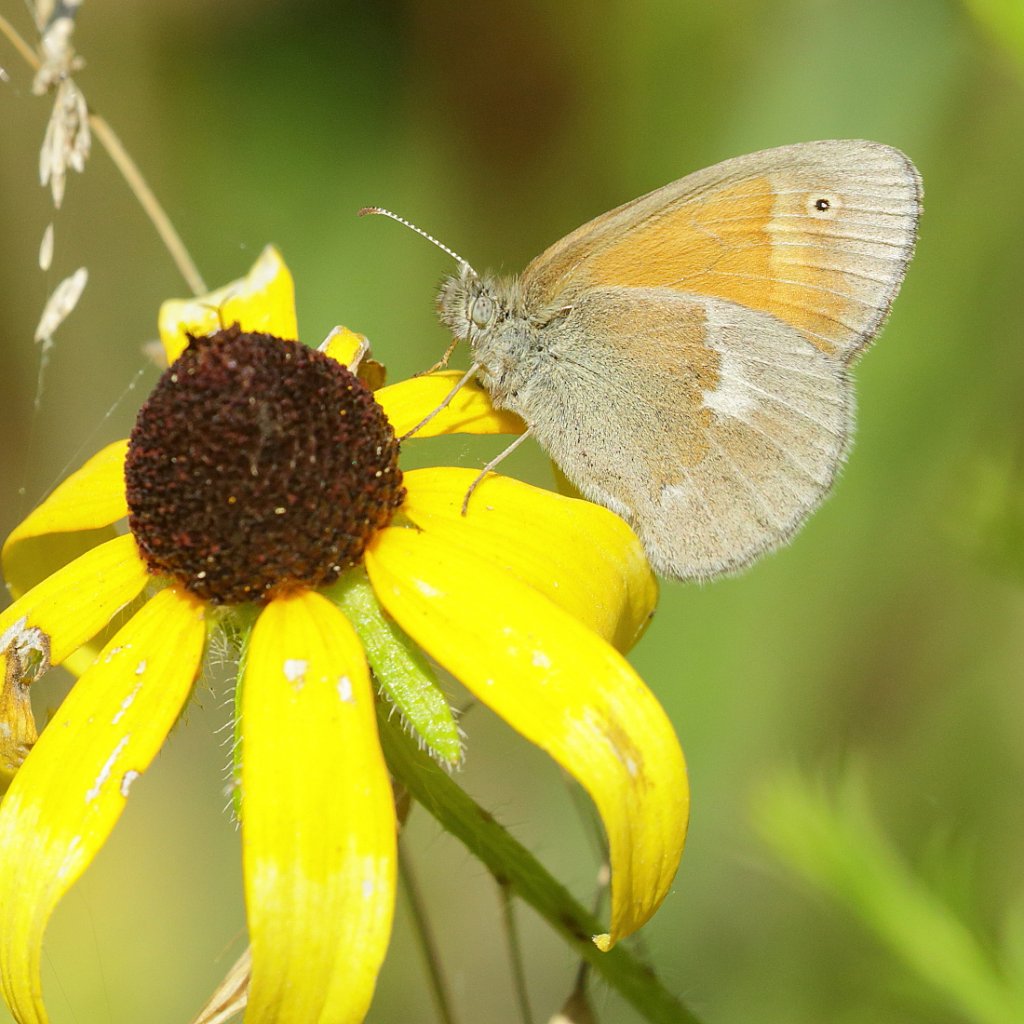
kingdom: Animalia
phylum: Arthropoda
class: Insecta
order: Lepidoptera
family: Nymphalidae
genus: Coenonympha
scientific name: Coenonympha tullia
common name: Large Heath
